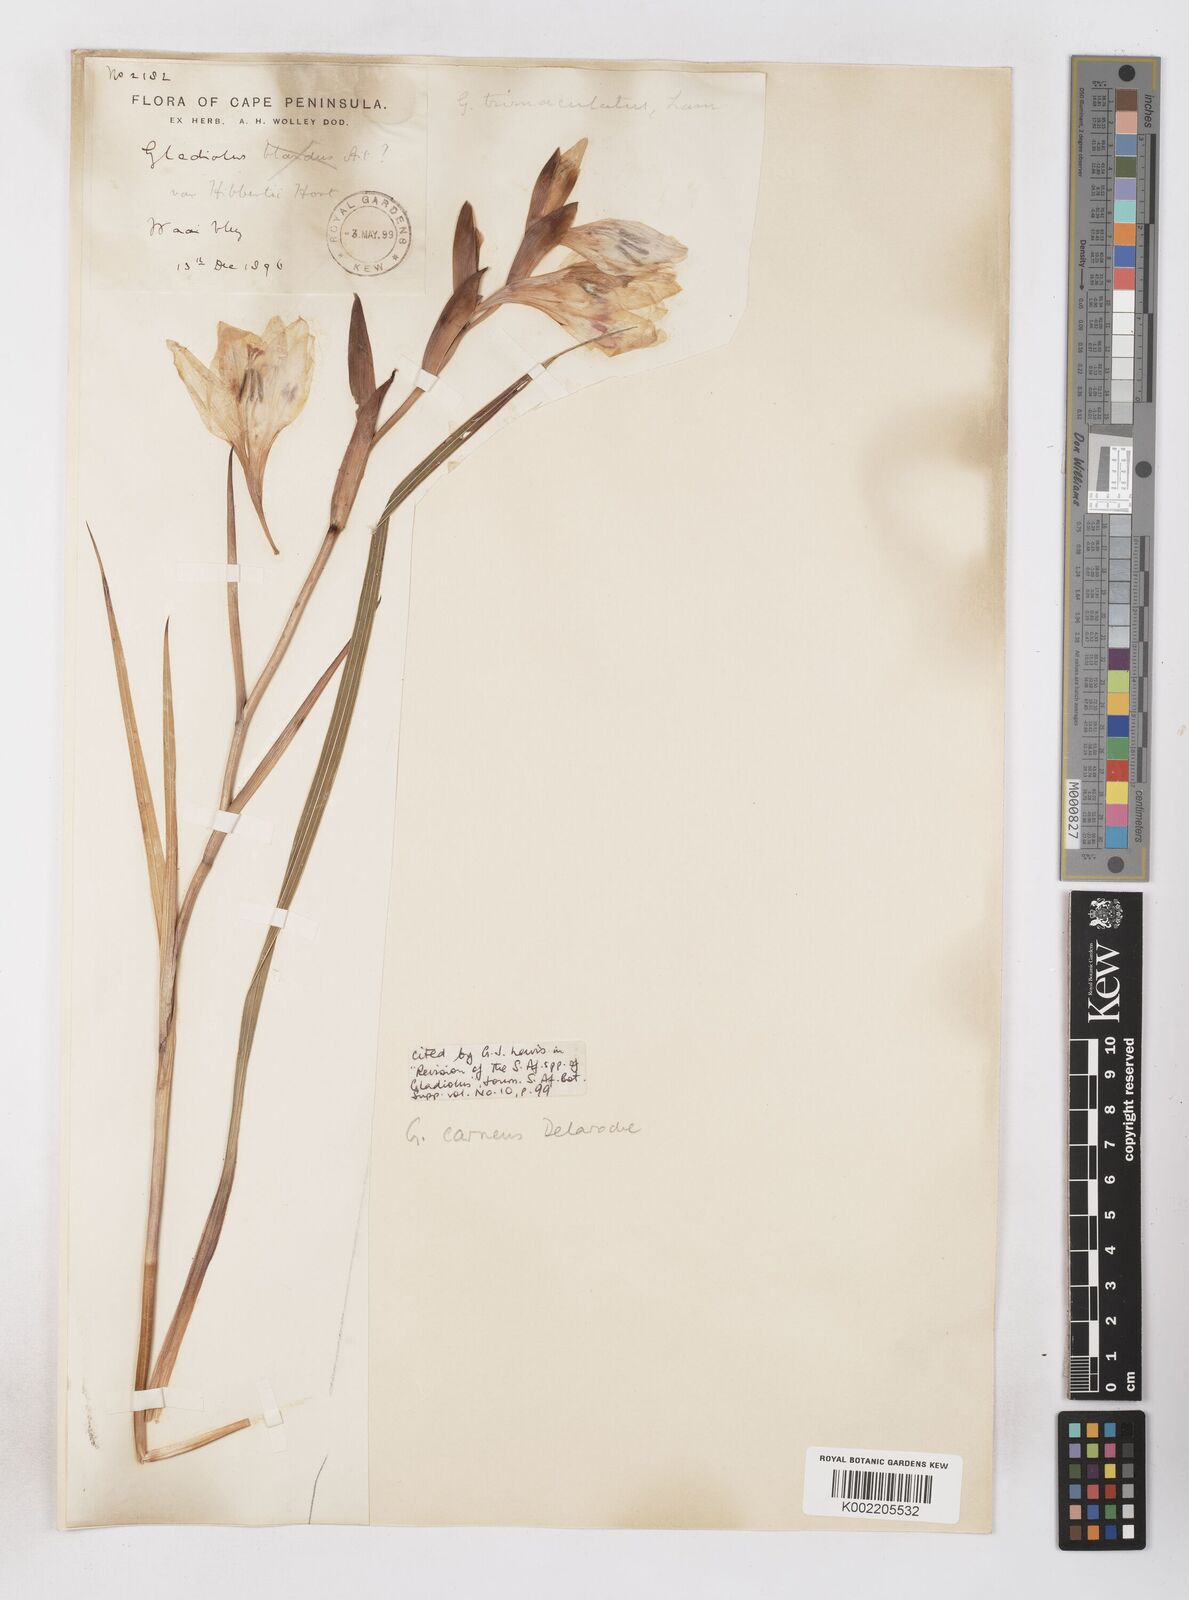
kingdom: Plantae
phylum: Tracheophyta
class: Liliopsida
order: Asparagales
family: Iridaceae
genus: Gladiolus
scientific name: Gladiolus carneus
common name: Painted-lady
